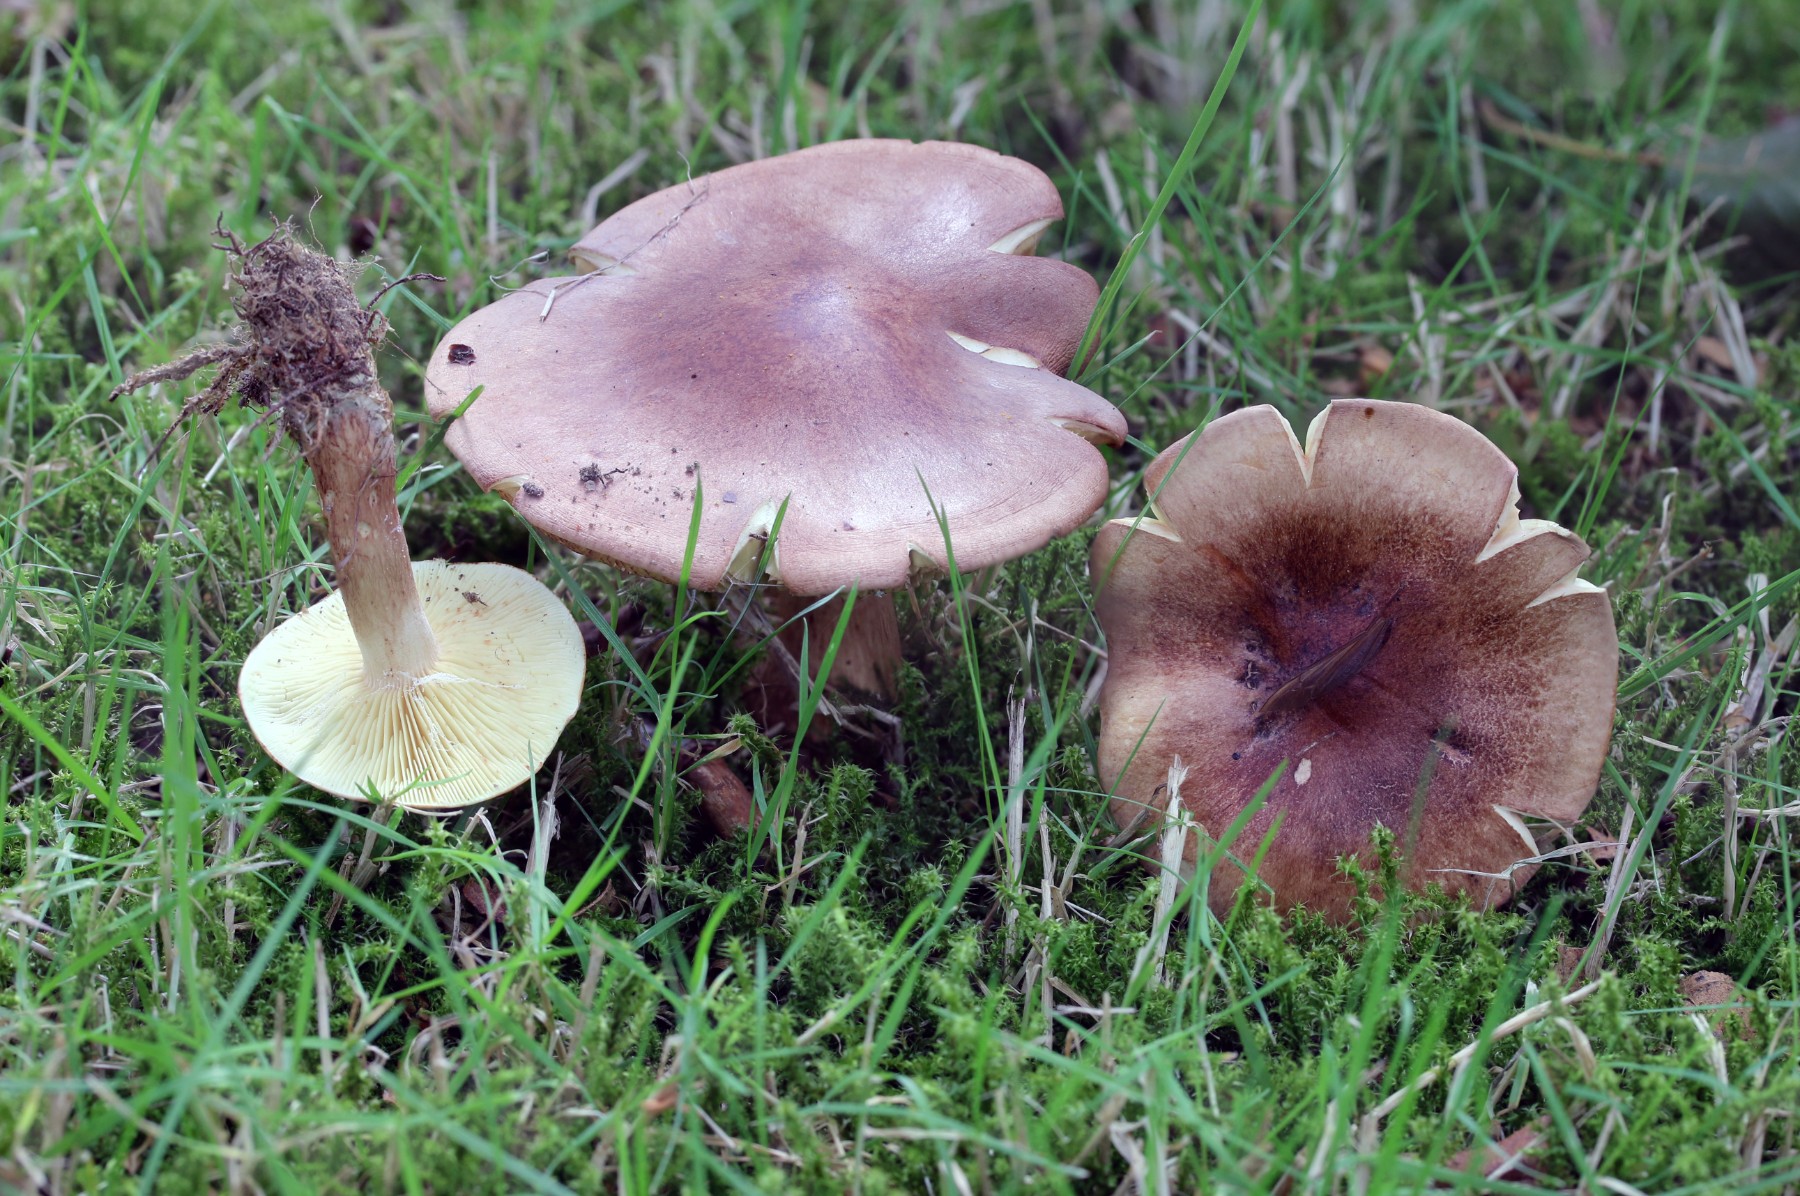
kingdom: Fungi
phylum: Basidiomycota
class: Agaricomycetes
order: Agaricales
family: Tricholomataceae
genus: Tricholoma
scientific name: Tricholoma fulvum
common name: birke-ridderhat
